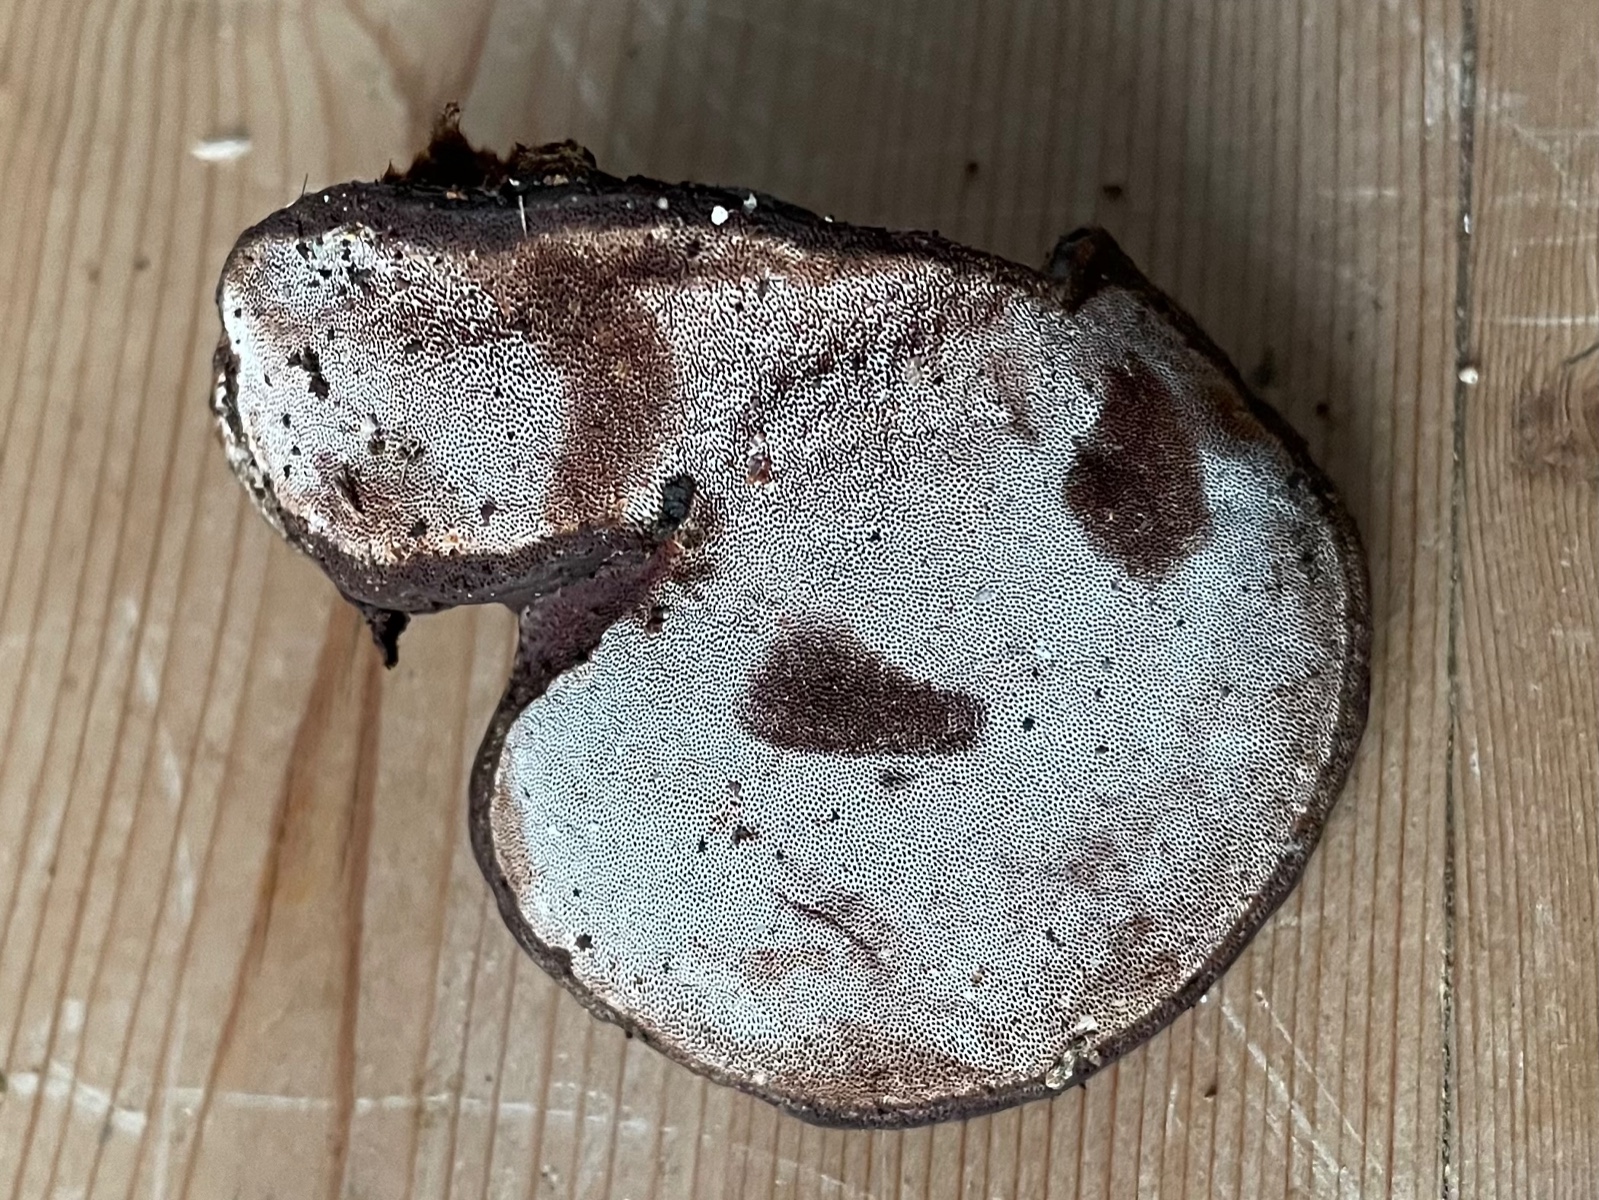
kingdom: Fungi
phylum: Basidiomycota
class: Agaricomycetes
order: Polyporales
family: Polyporaceae
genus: Ganoderma
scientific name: Ganoderma applanatum
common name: flad lakporesvamp
